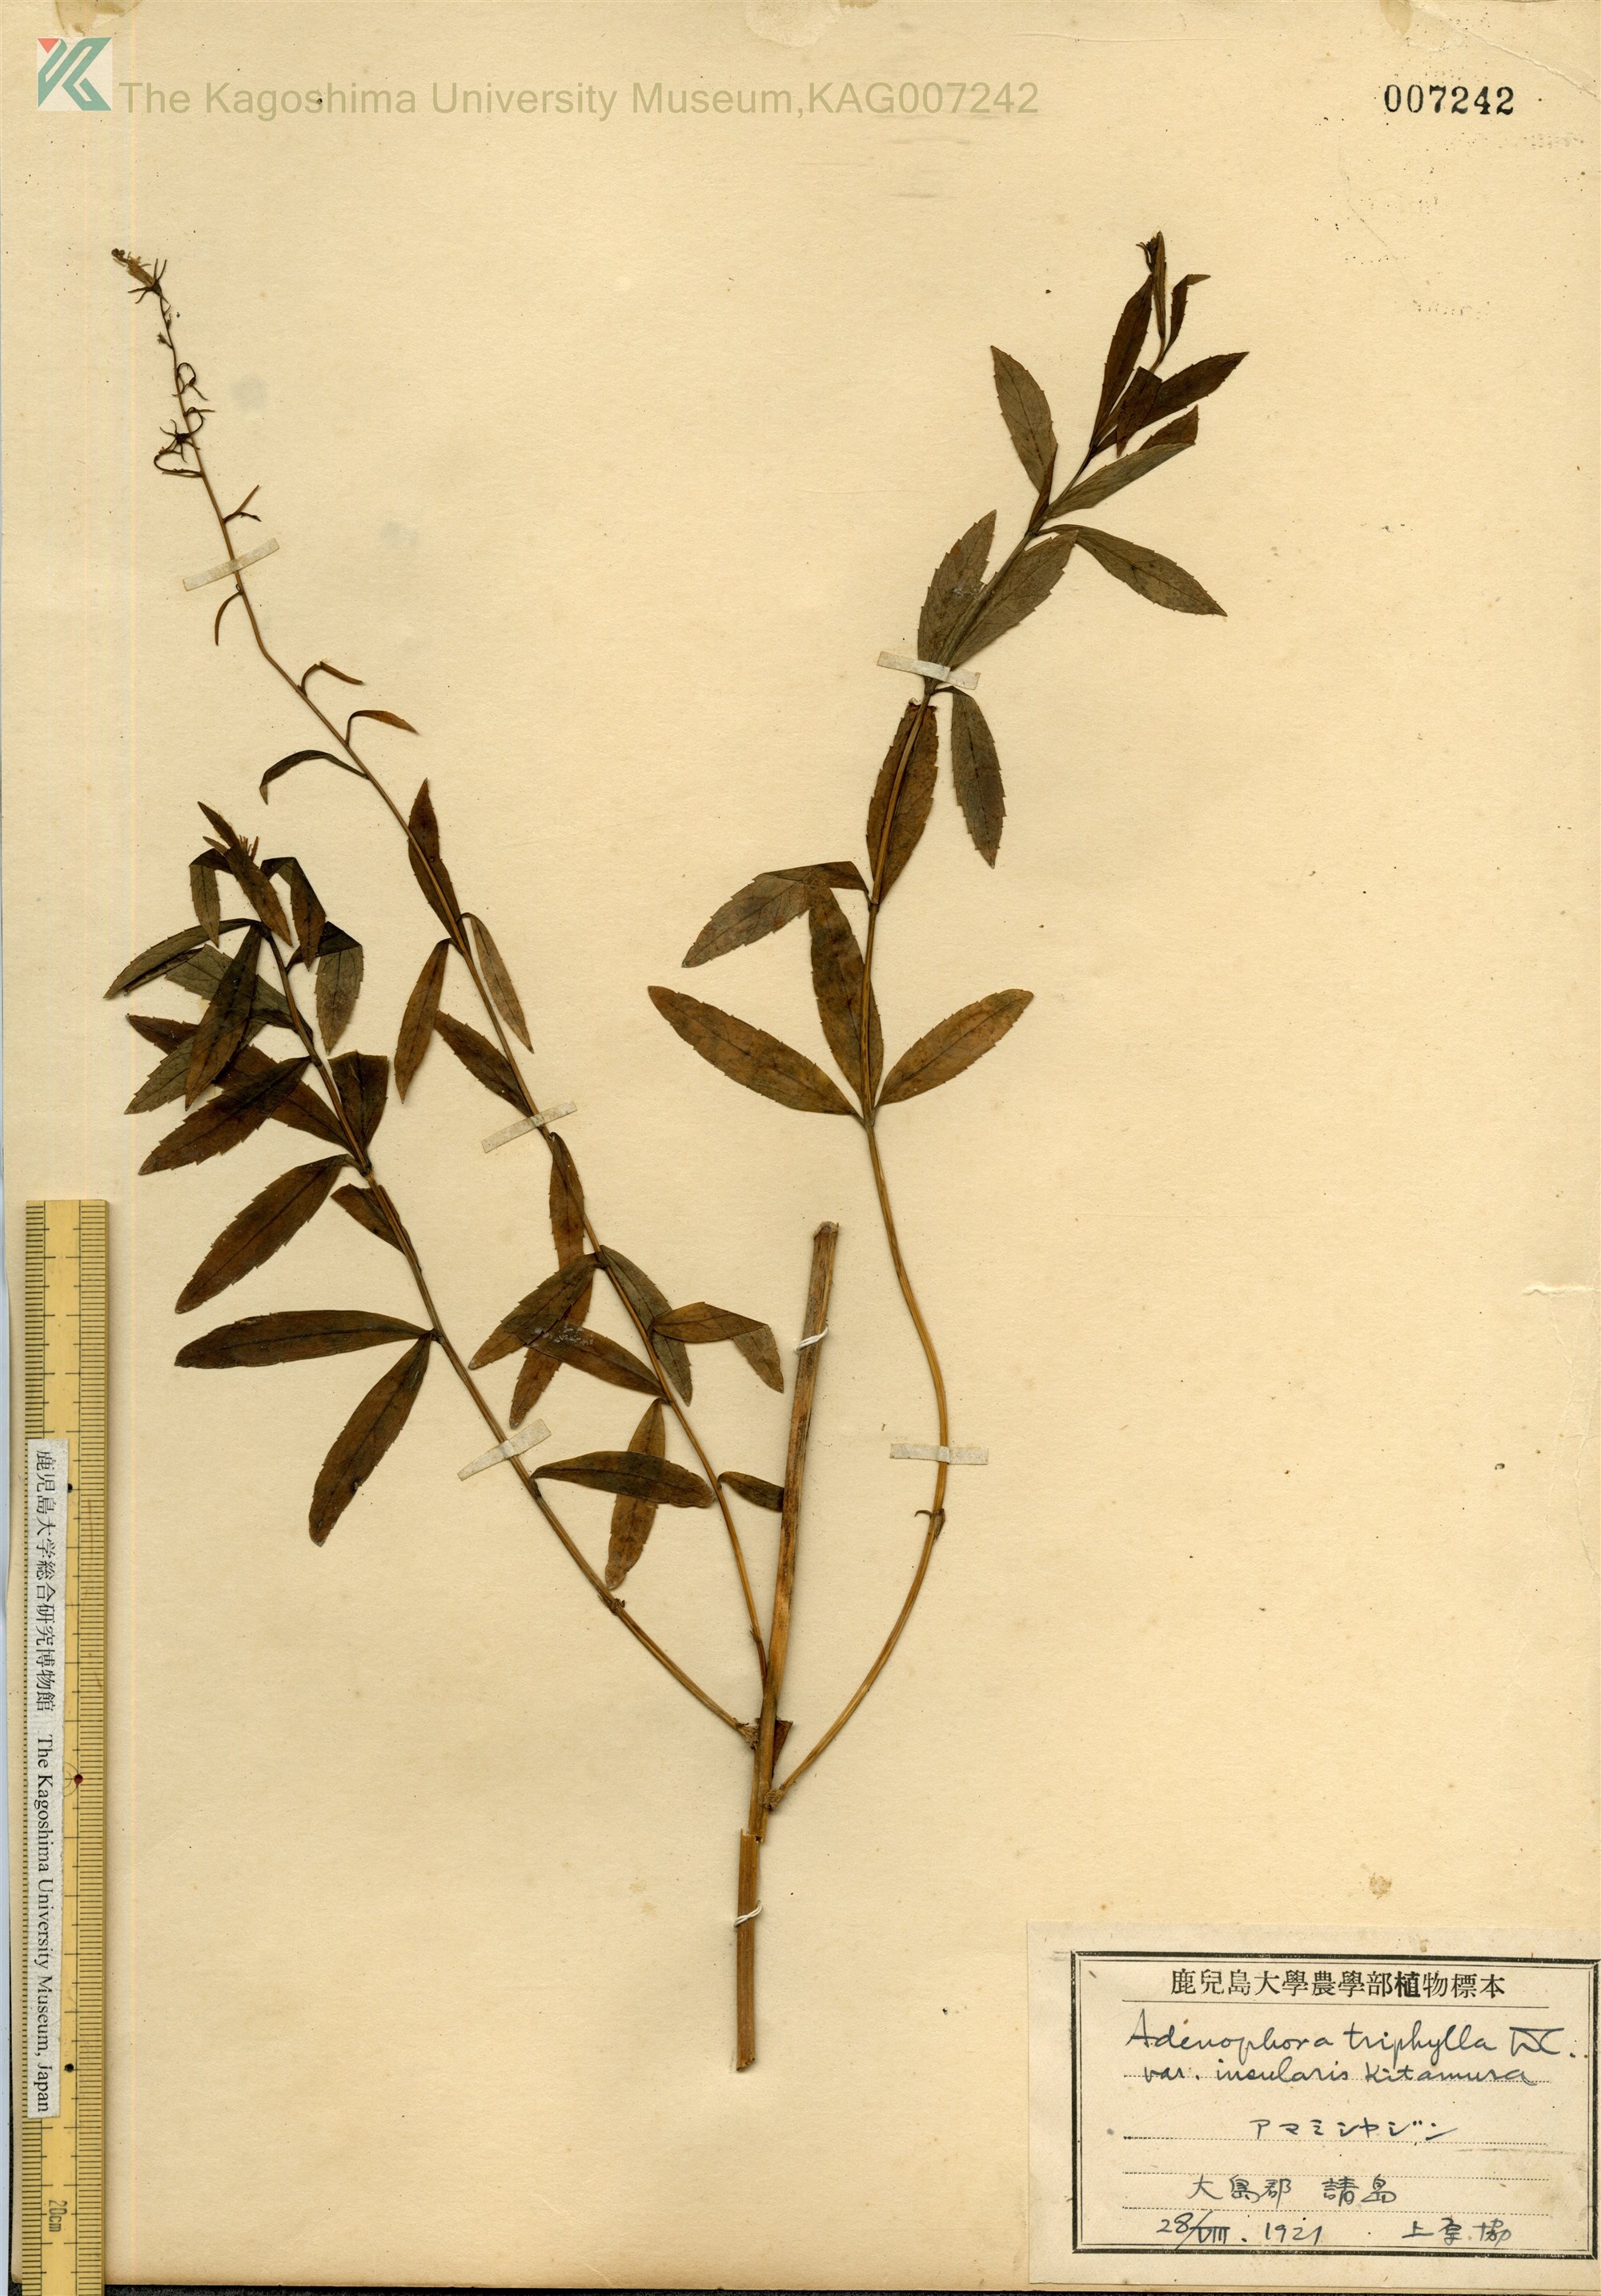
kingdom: Plantae
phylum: Tracheophyta
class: Magnoliopsida
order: Asterales
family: Campanulaceae
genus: Adenophora
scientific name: Adenophora tashiroi
